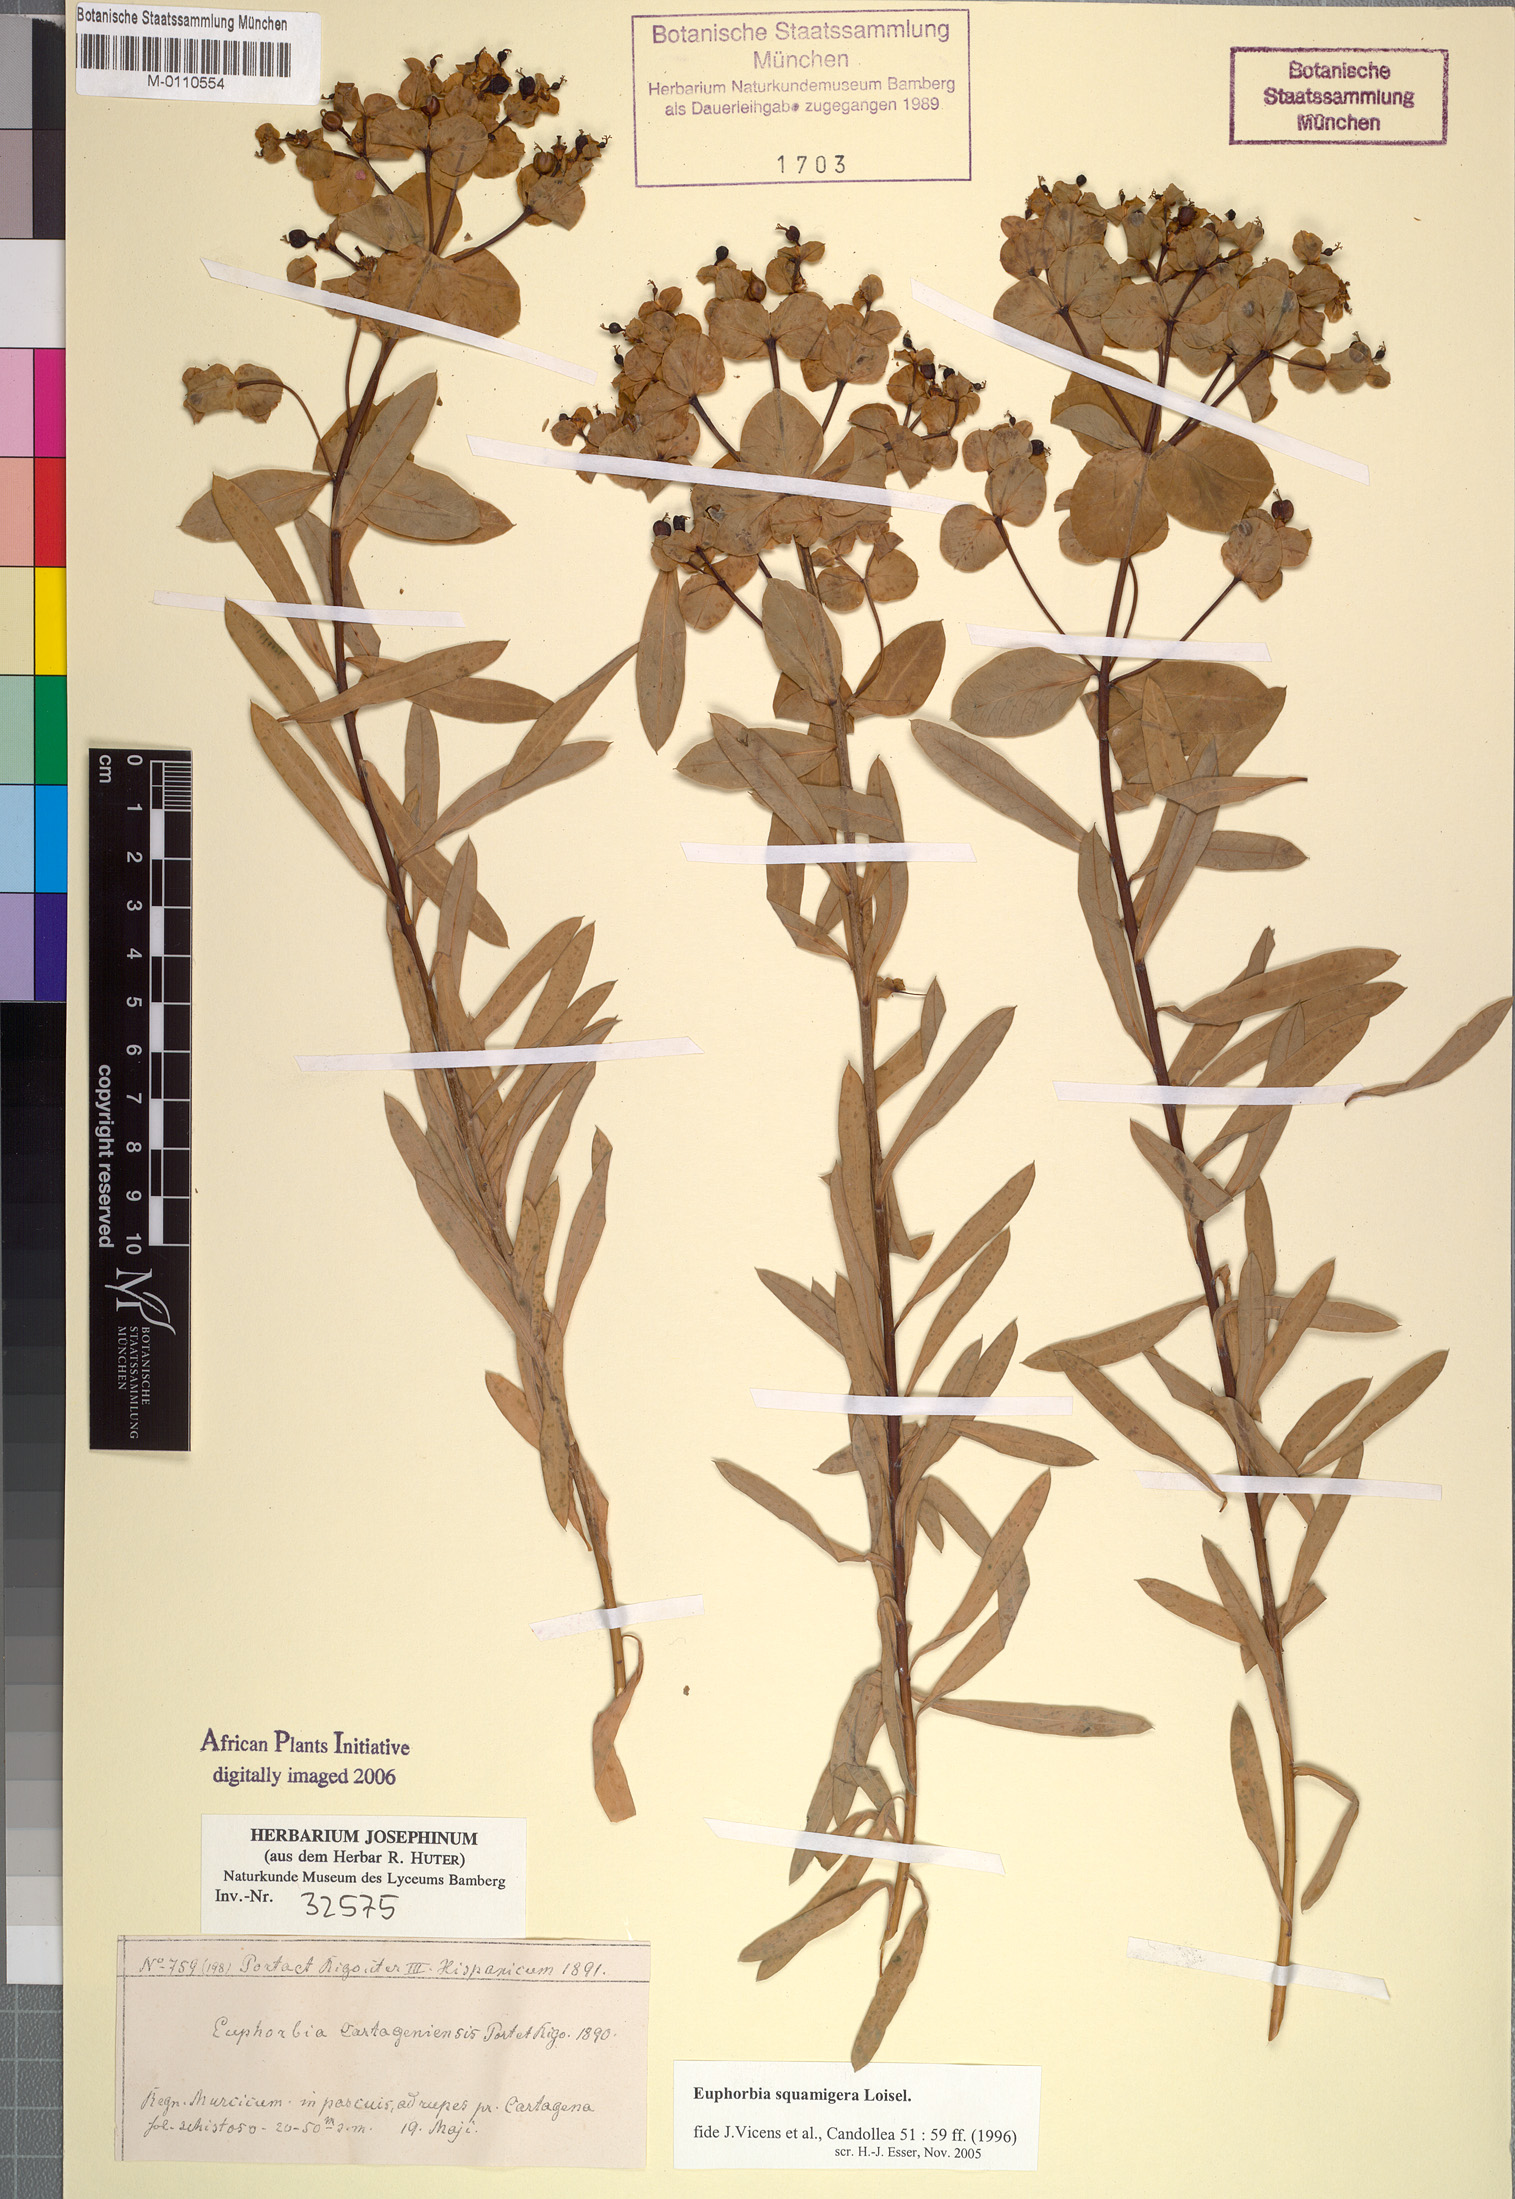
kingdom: Plantae
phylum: Tracheophyta
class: Magnoliopsida
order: Malpighiales
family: Euphorbiaceae
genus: Euphorbia
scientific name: Euphorbia squamigera
